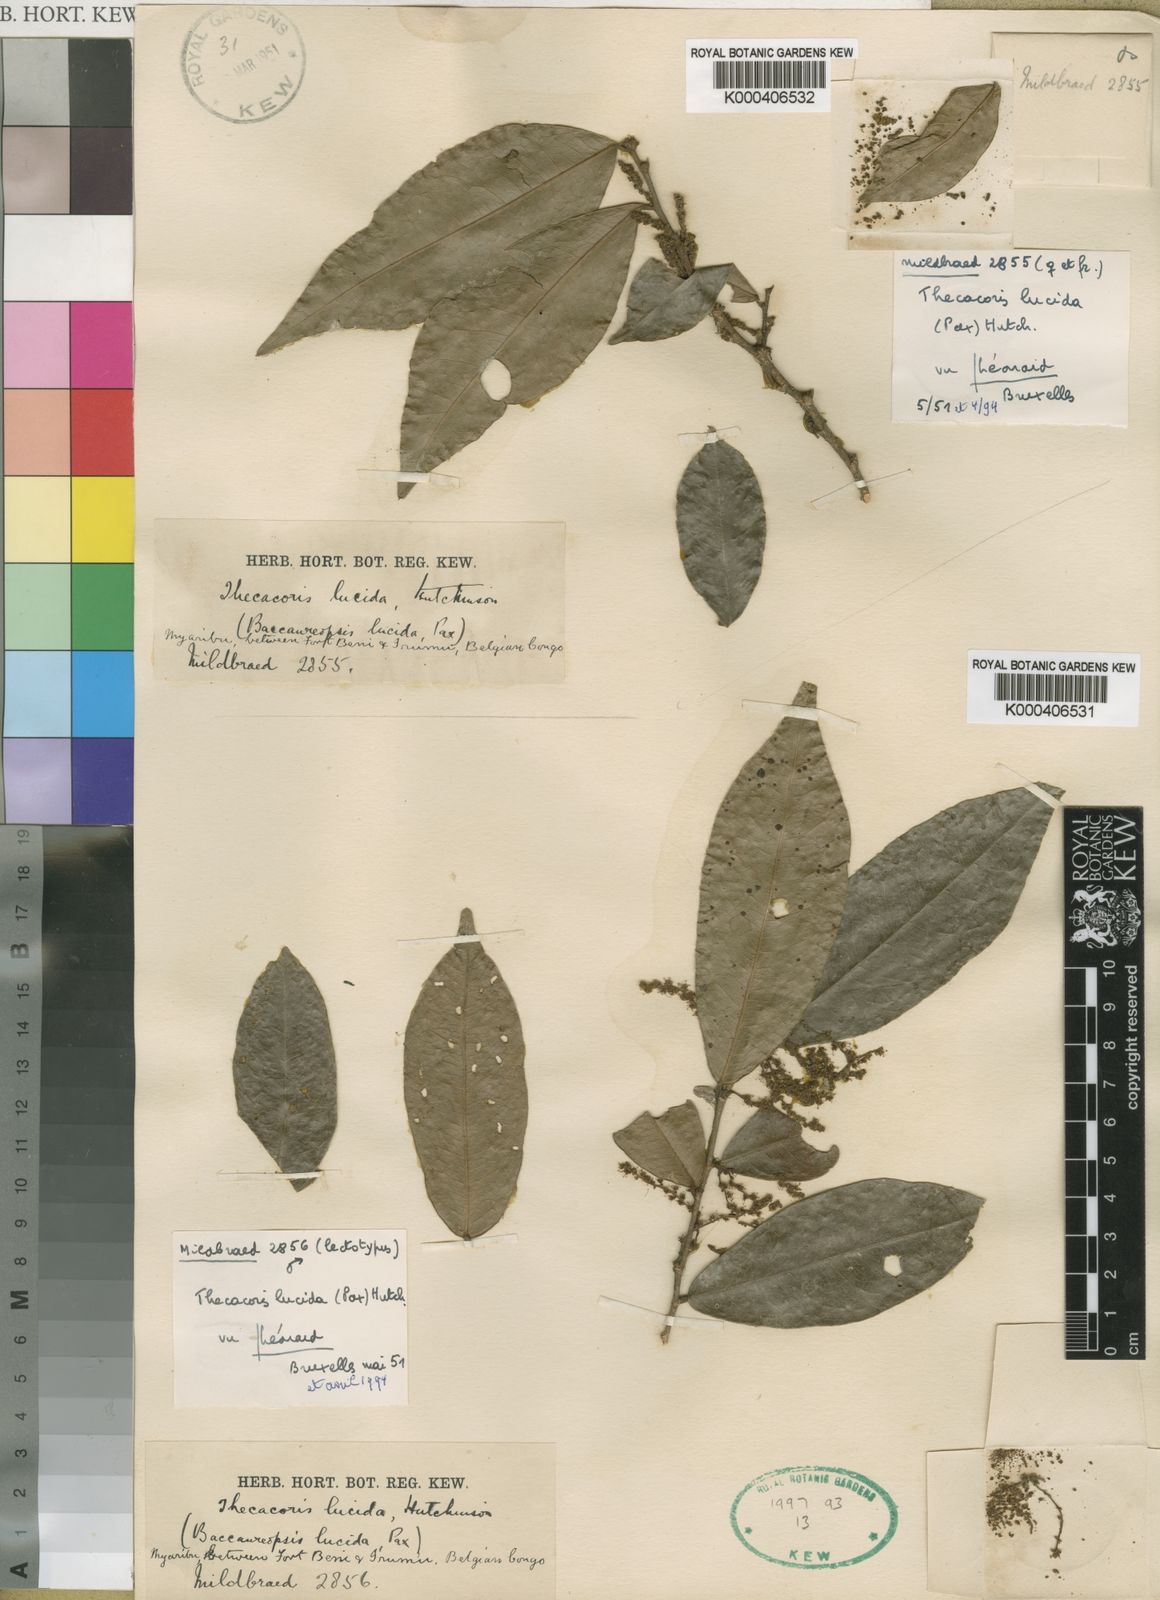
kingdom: Plantae
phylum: Tracheophyta
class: Magnoliopsida
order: Malpighiales
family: Phyllanthaceae
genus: Thecacoris
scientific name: Thecacoris lucida
